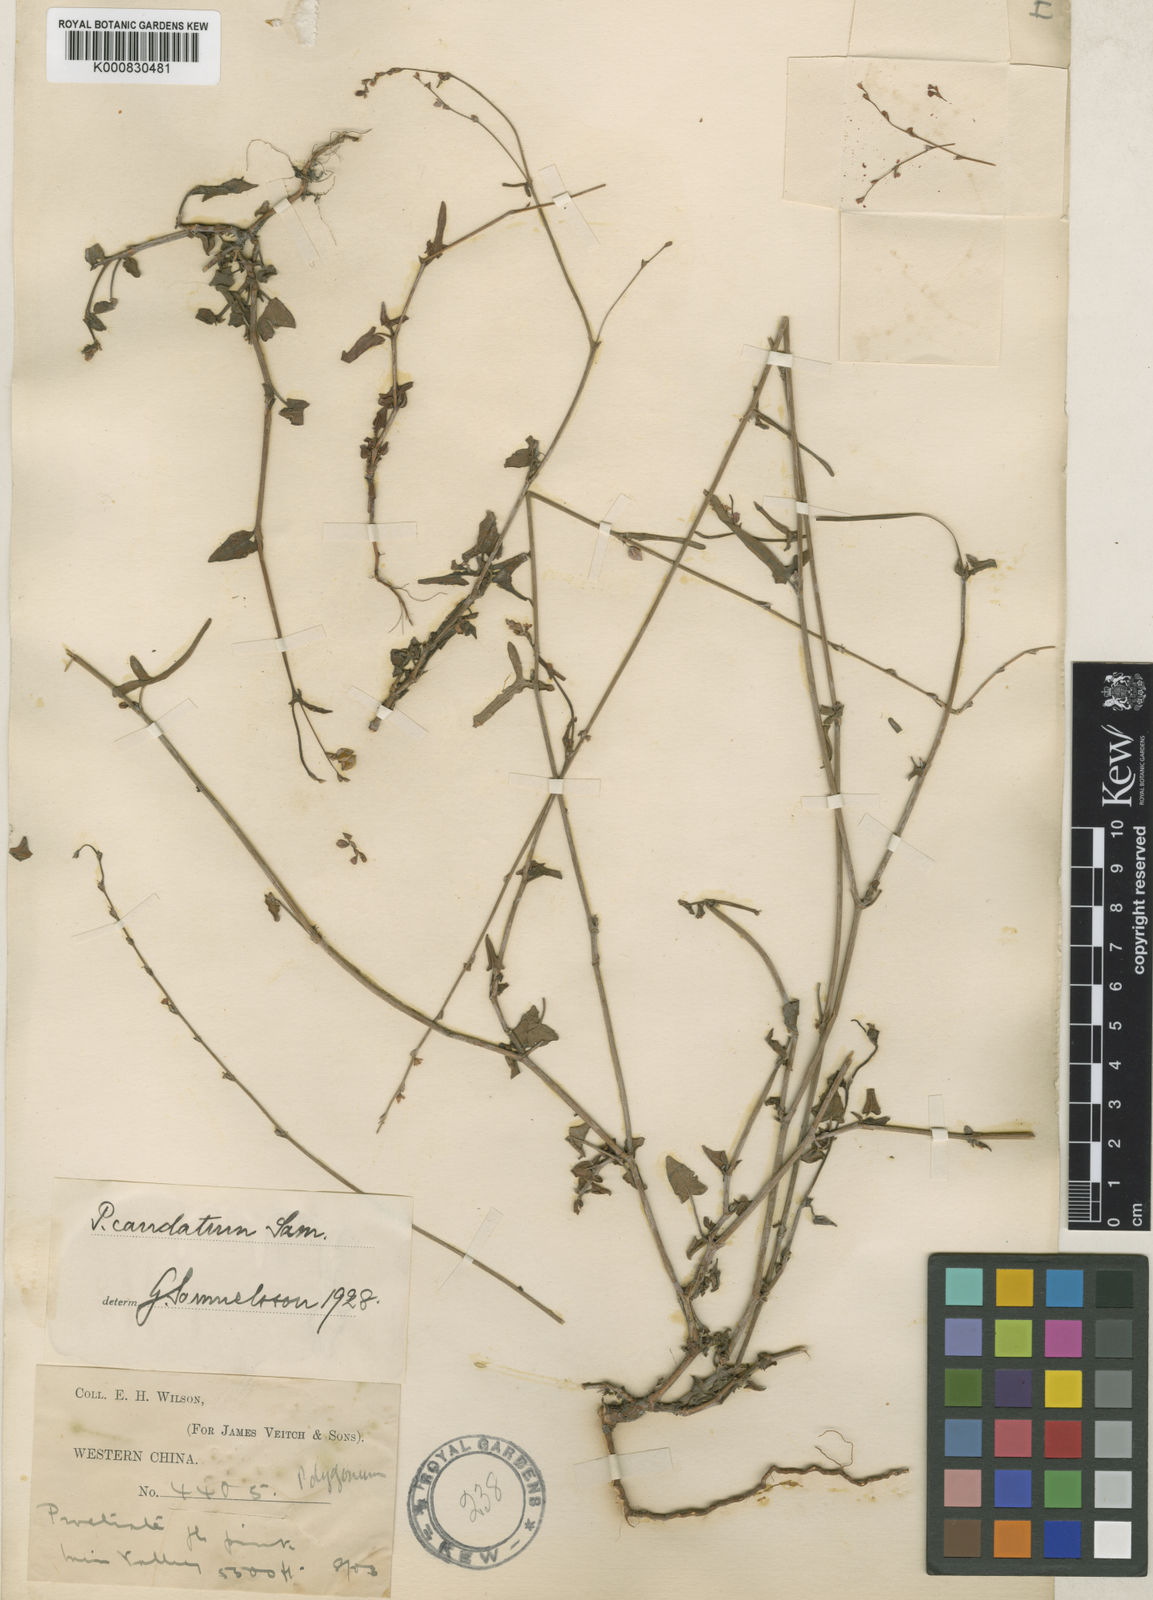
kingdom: Plantae
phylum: Tracheophyta
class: Magnoliopsida
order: Caryophyllales
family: Polygonaceae
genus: Fagopyrum
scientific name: Fagopyrum caudatum
